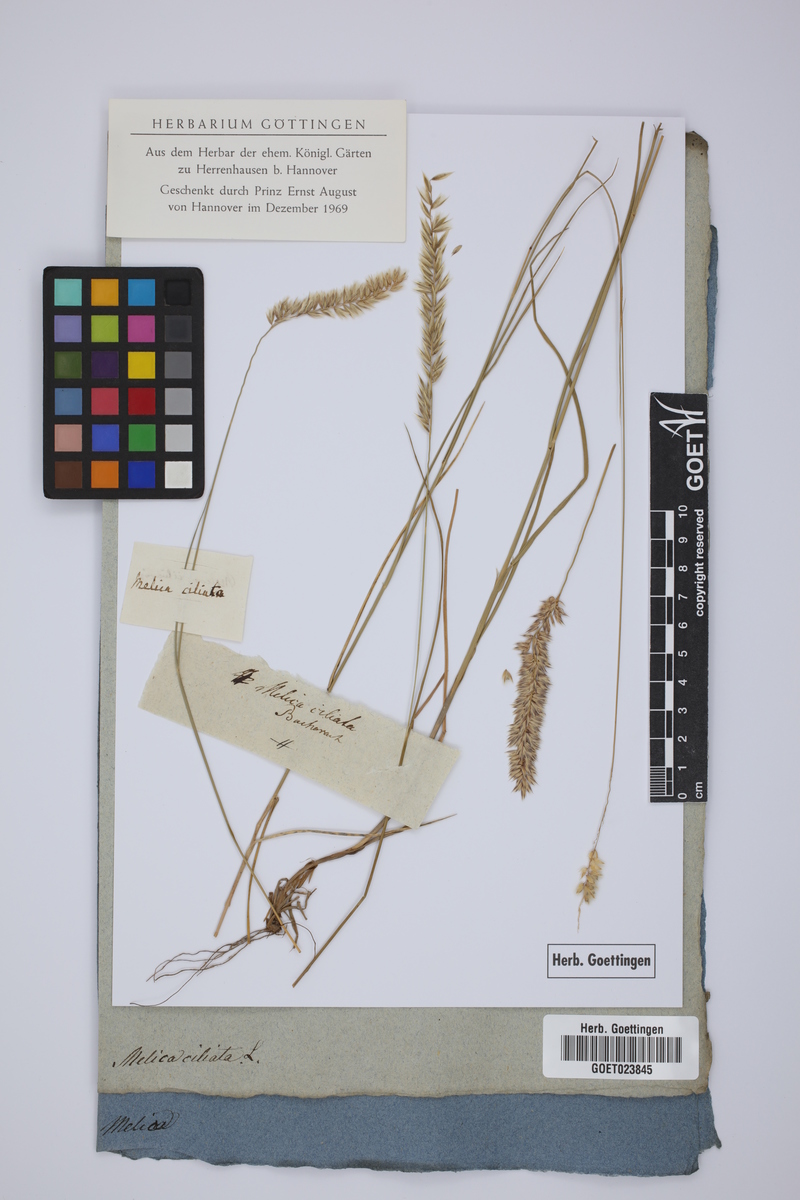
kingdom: Plantae
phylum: Tracheophyta
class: Liliopsida
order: Poales
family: Poaceae
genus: Melica
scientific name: Melica ciliata
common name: Hairy melicgrass
